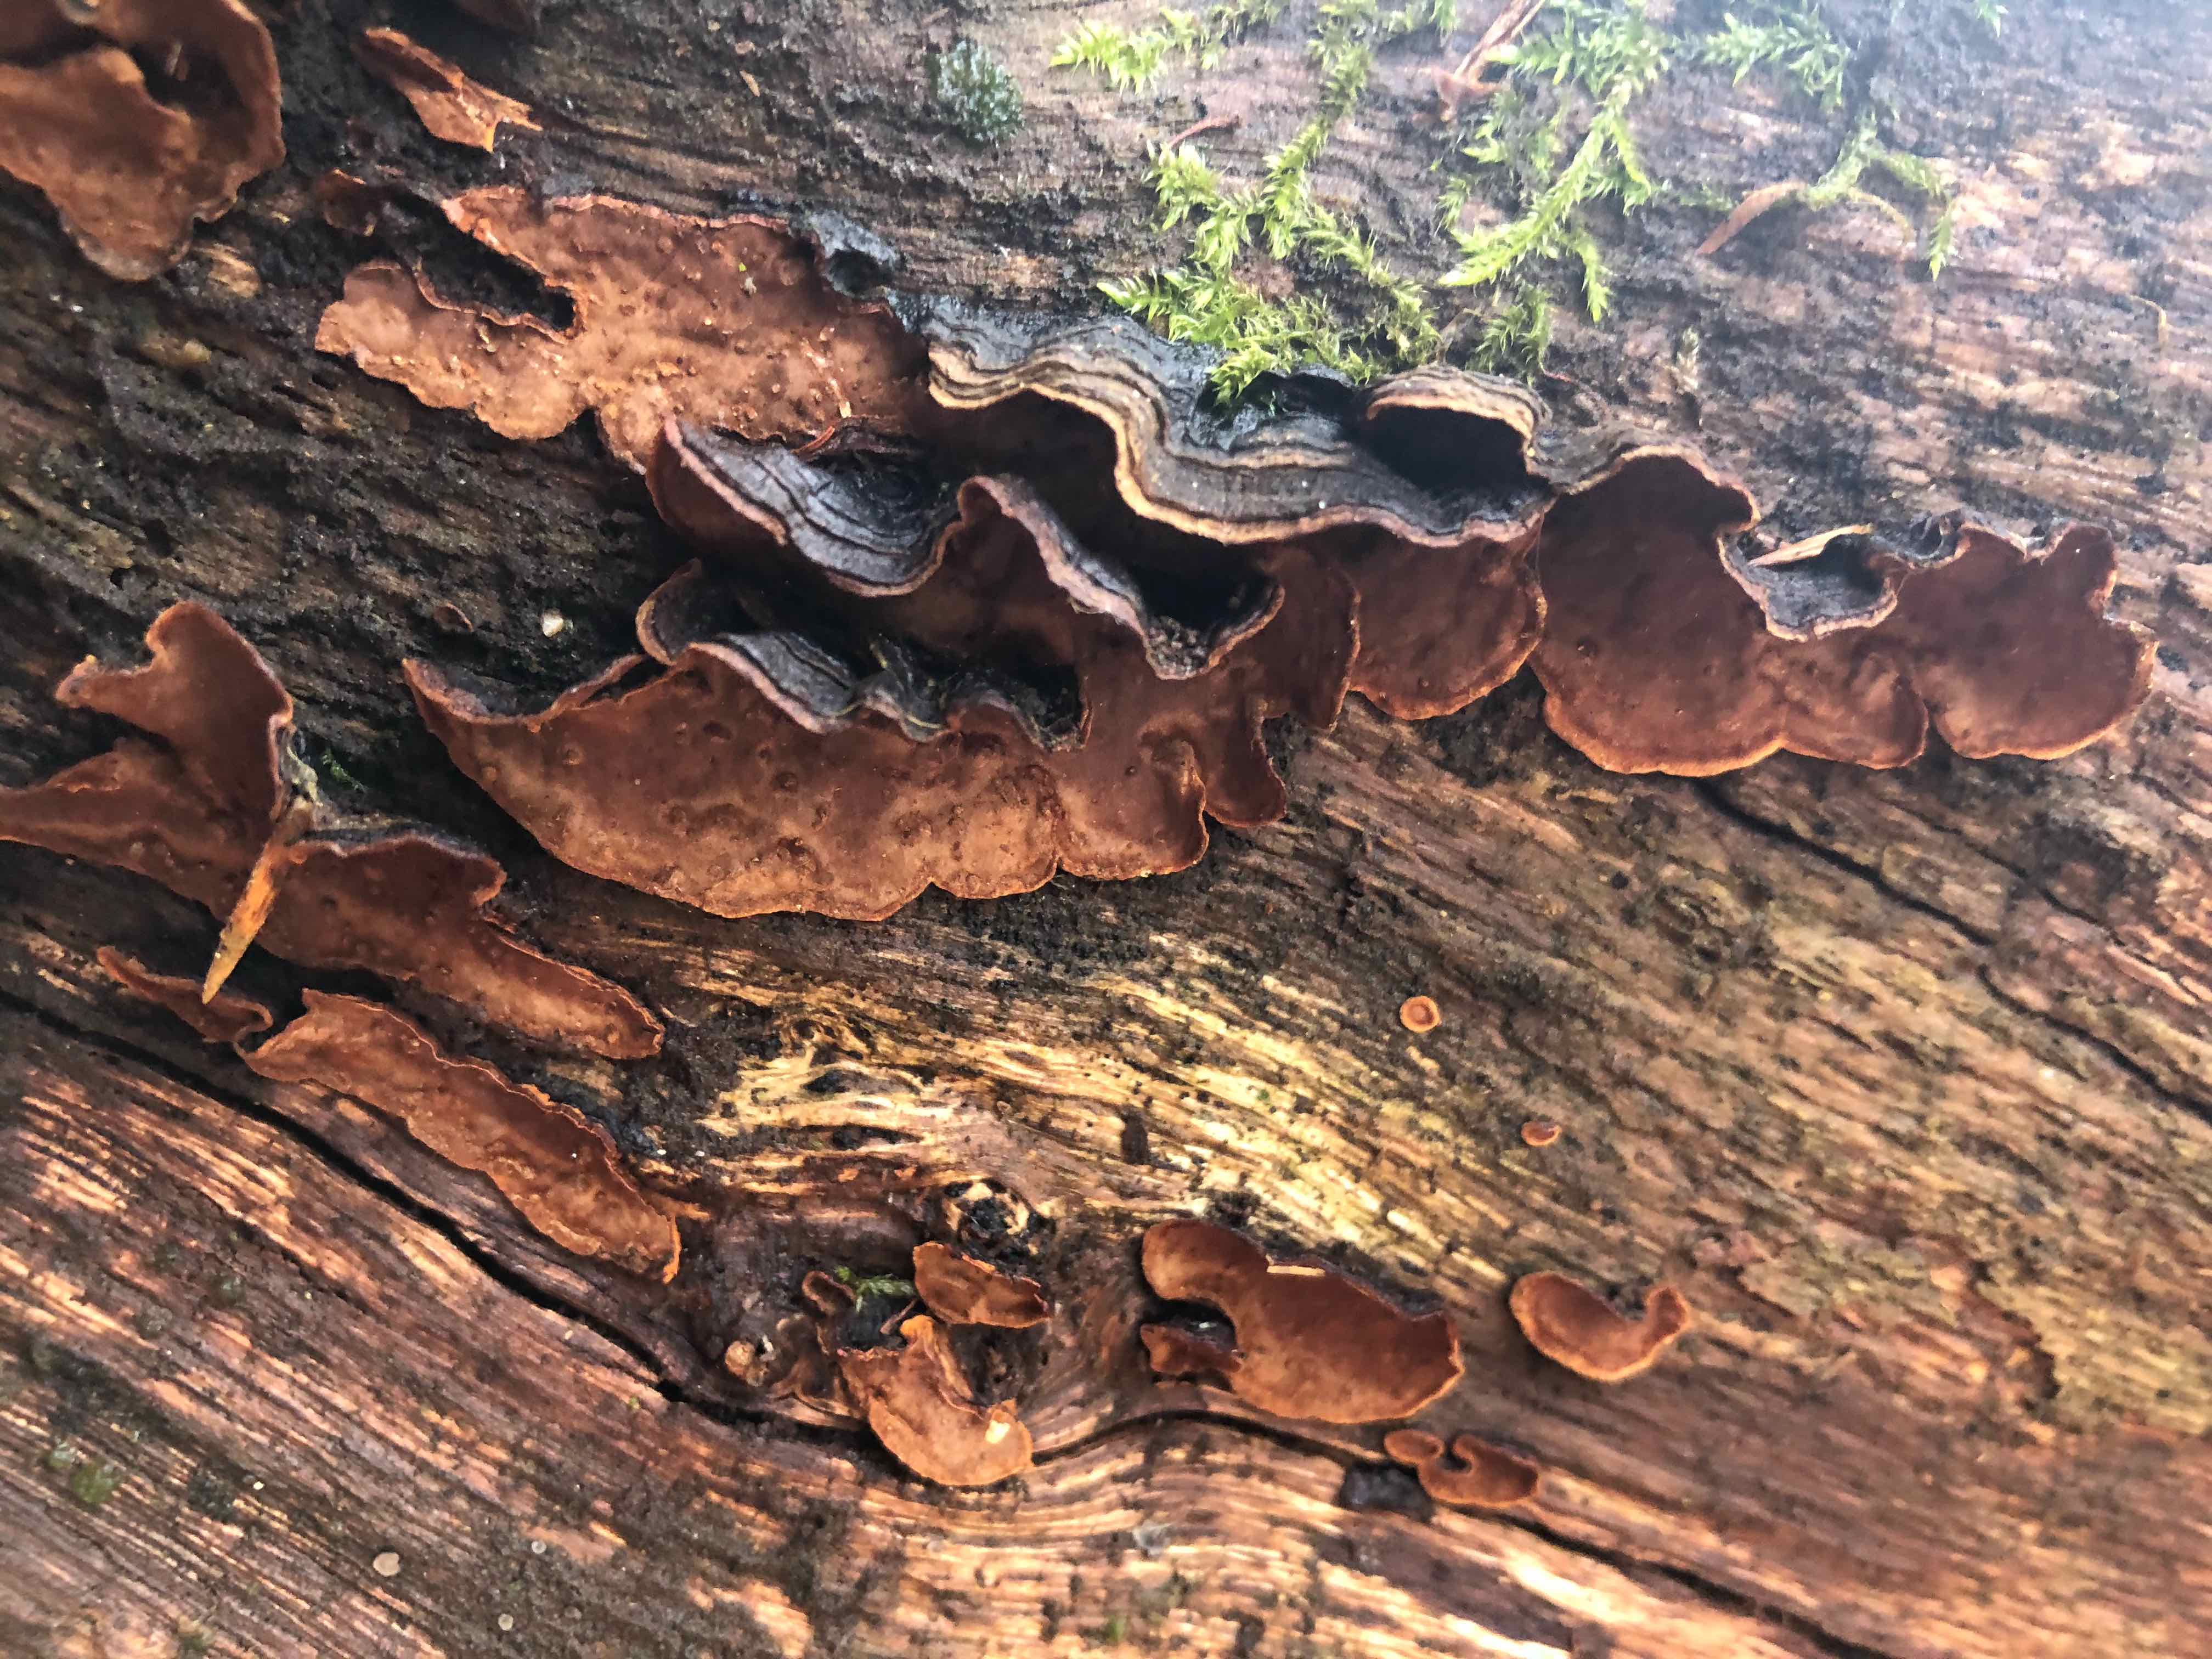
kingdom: Fungi
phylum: Basidiomycota
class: Agaricomycetes
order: Hymenochaetales
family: Hymenochaetaceae
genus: Hymenochaete
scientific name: Hymenochaete rubiginosa
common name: stiv ruslædersvamp
